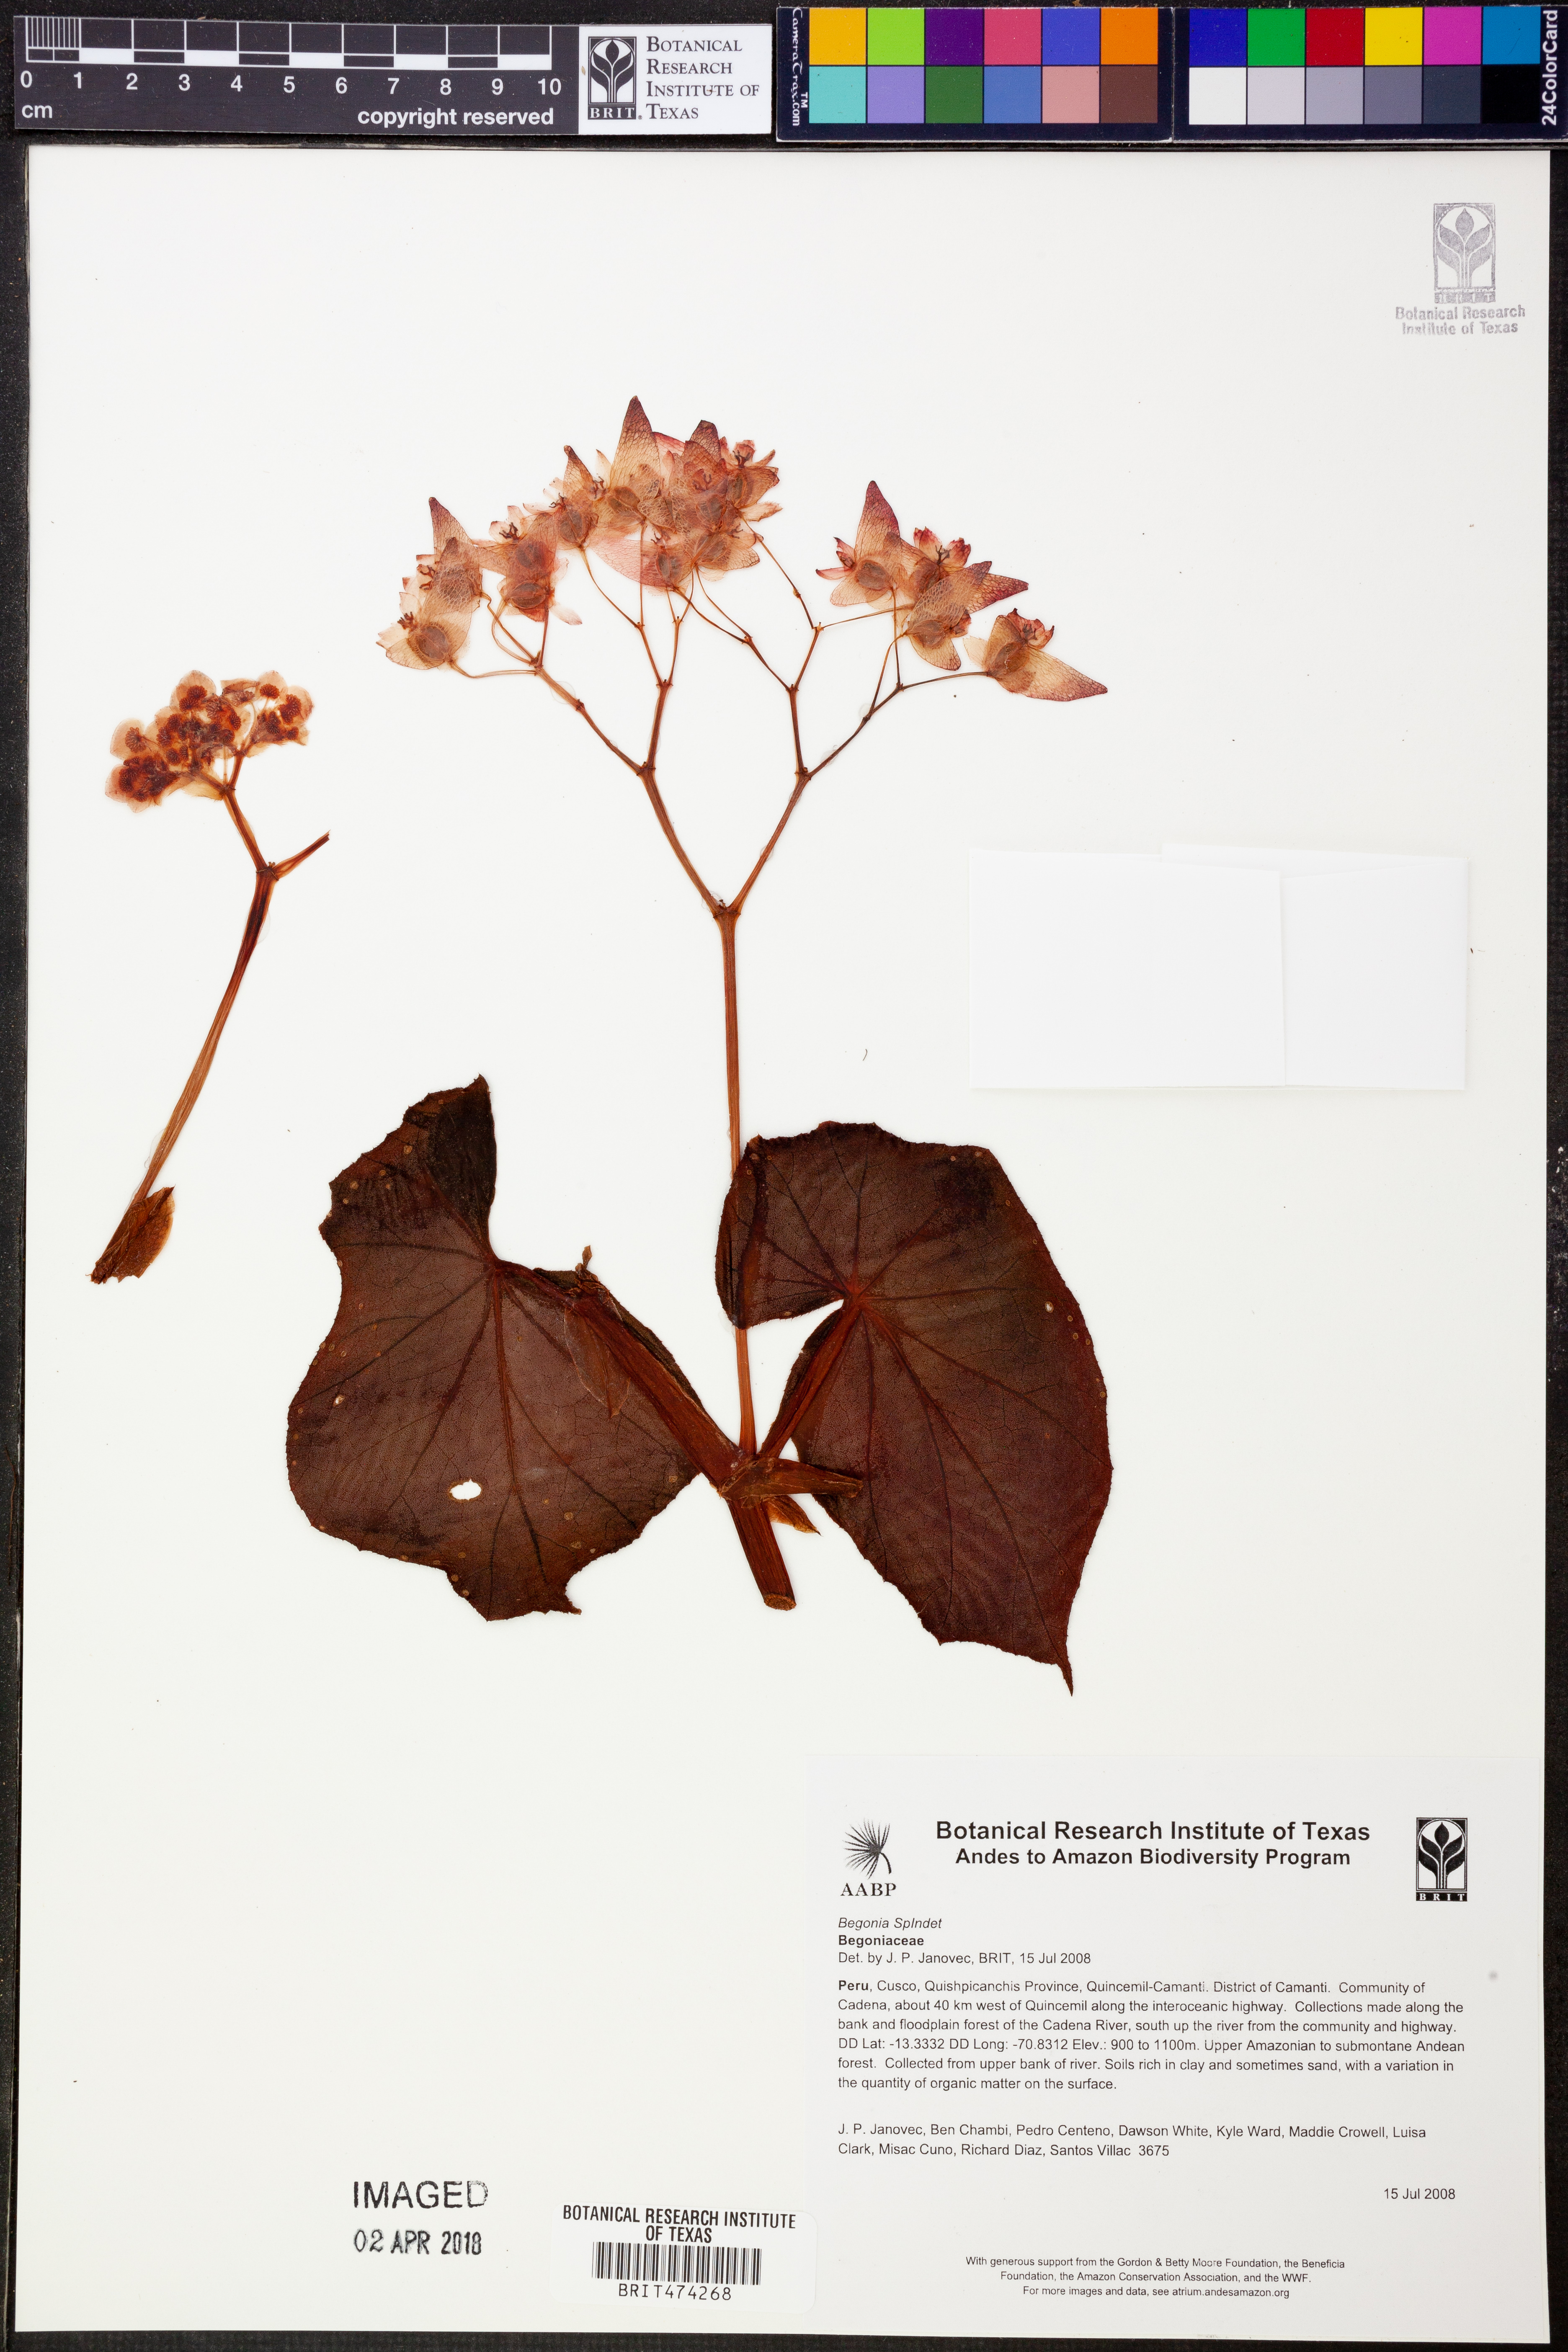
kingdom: Plantae
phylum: Tracheophyta
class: Magnoliopsida
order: Cucurbitales
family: Begoniaceae
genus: Begonia
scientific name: Begonia stenotepala
